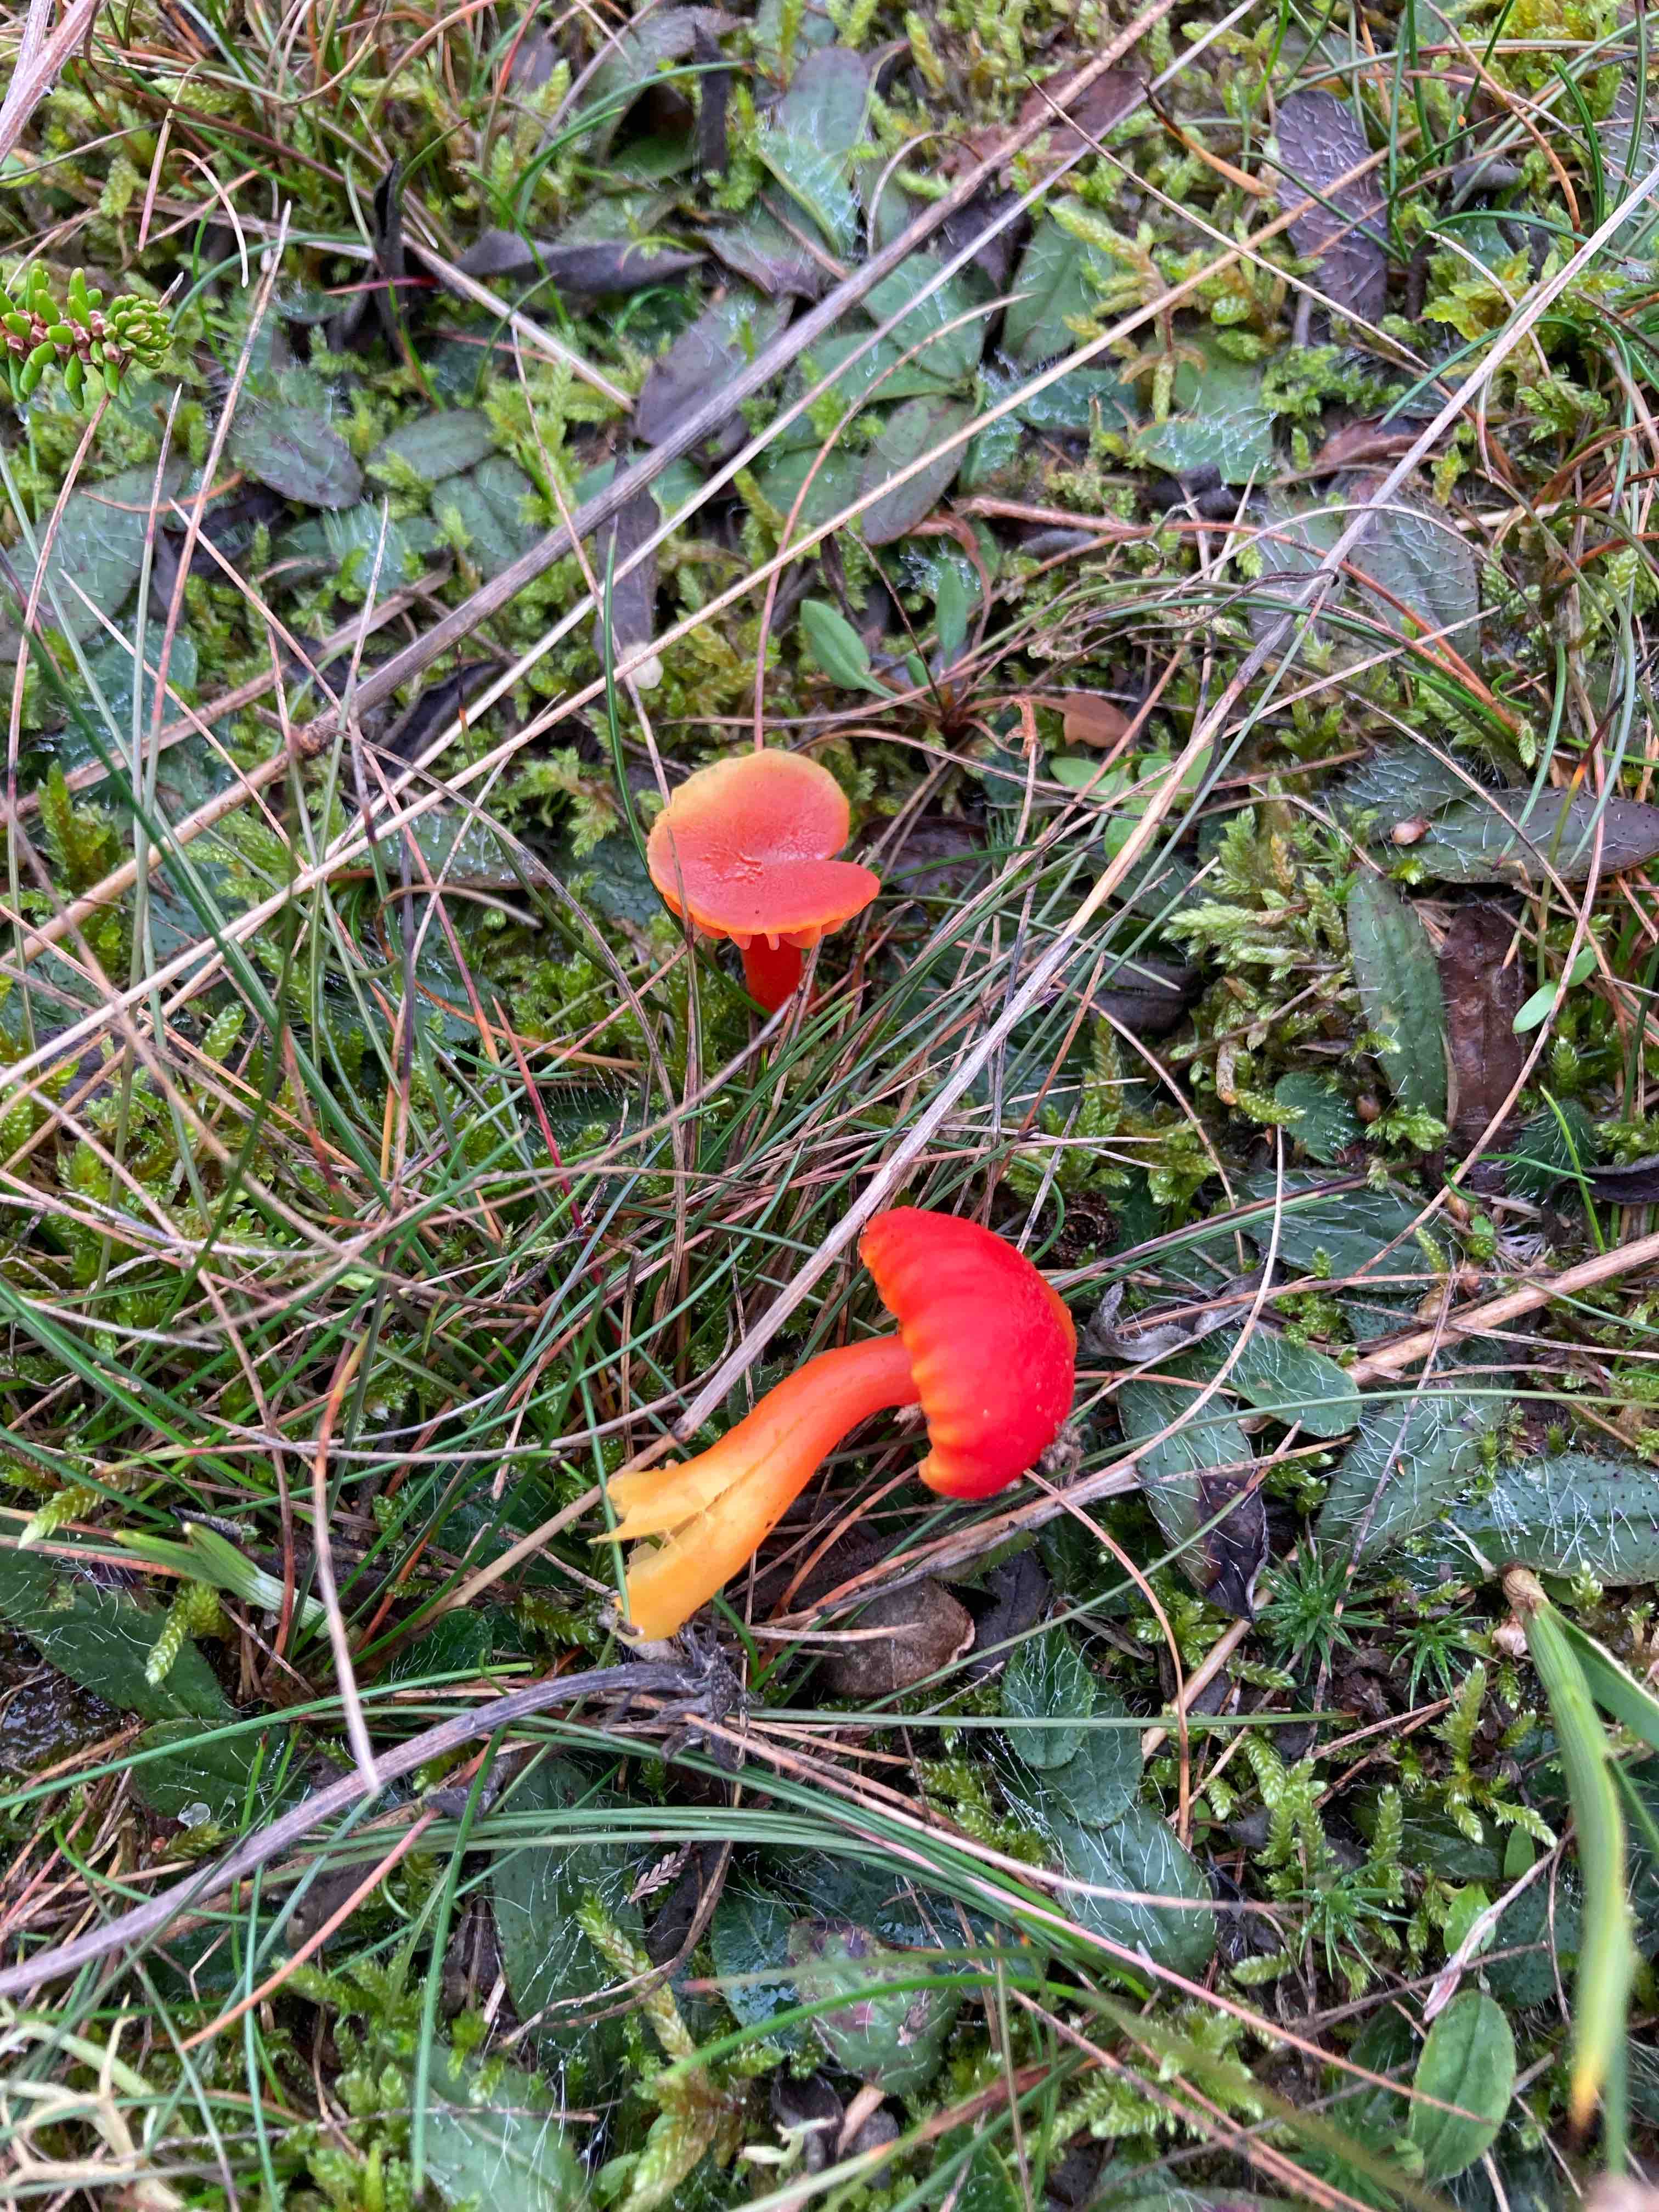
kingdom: Fungi
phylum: Basidiomycota
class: Agaricomycetes
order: Agaricales
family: Hygrophoraceae
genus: Hygrocybe
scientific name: Hygrocybe miniata
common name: mønje-vokshat
